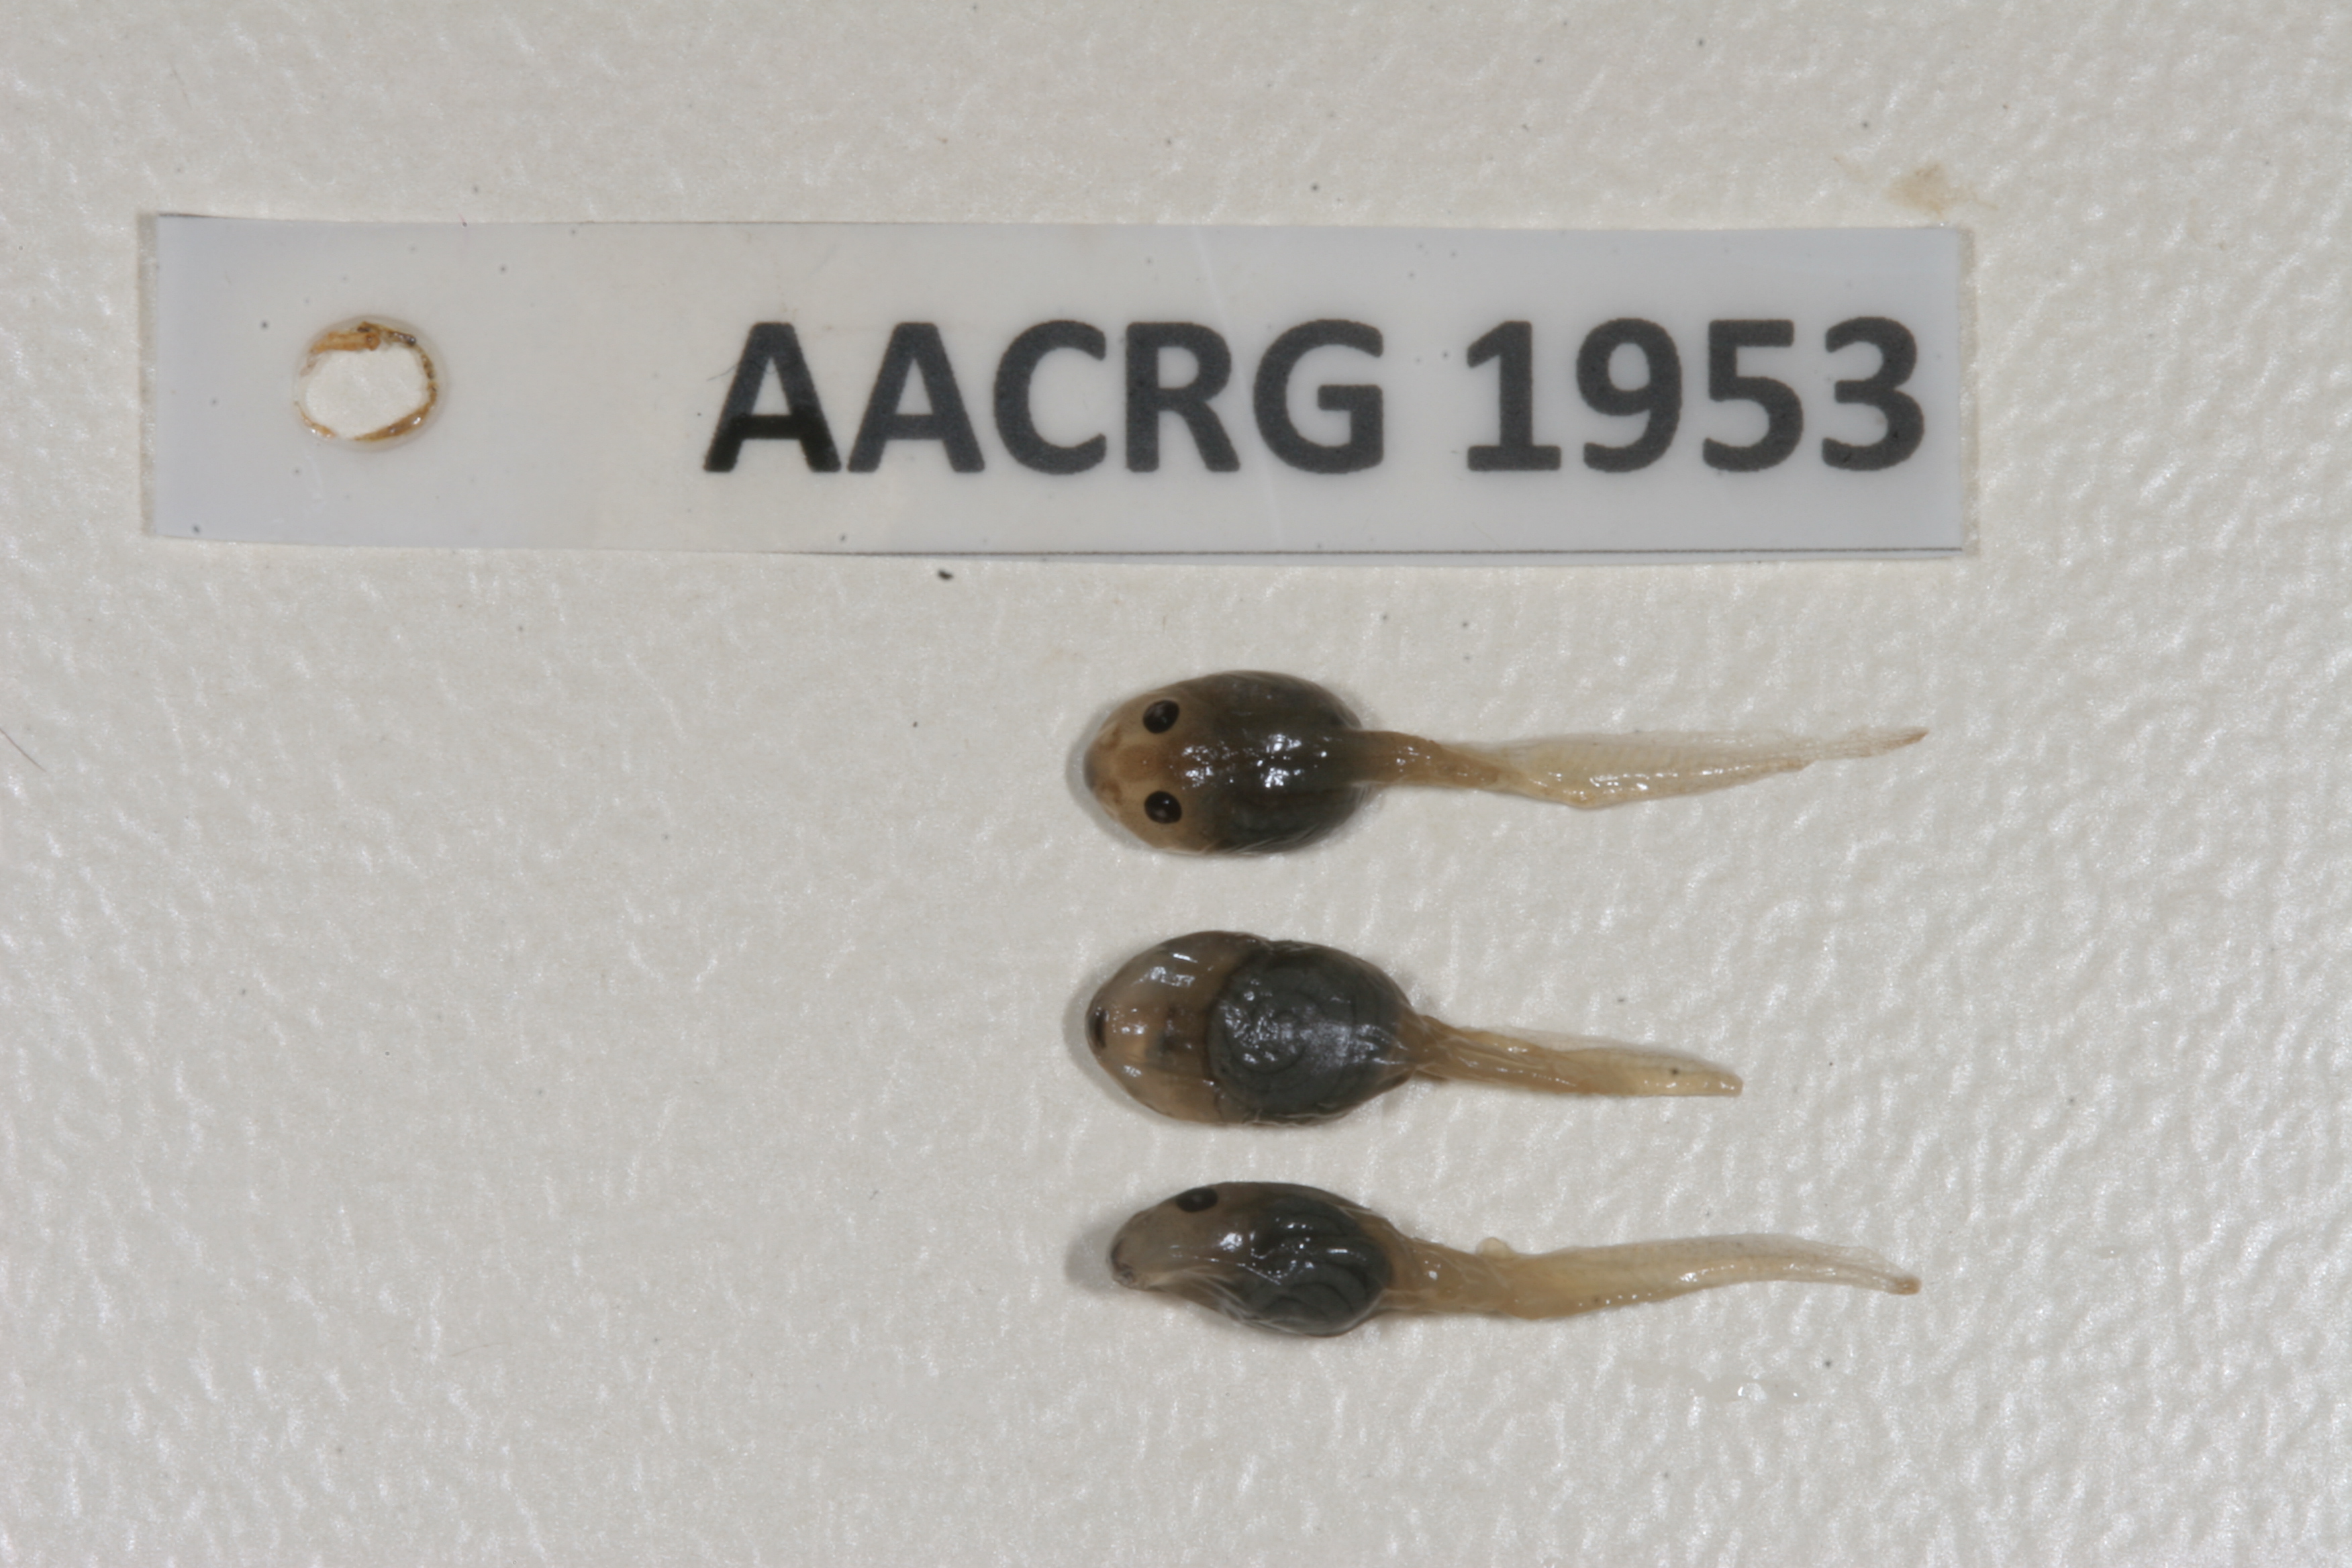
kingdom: Animalia
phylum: Chordata
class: Amphibia
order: Anura
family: Ptychadenidae
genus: Ptychadena
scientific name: Ptychadena mascareniensis
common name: Mascarene grass frog
